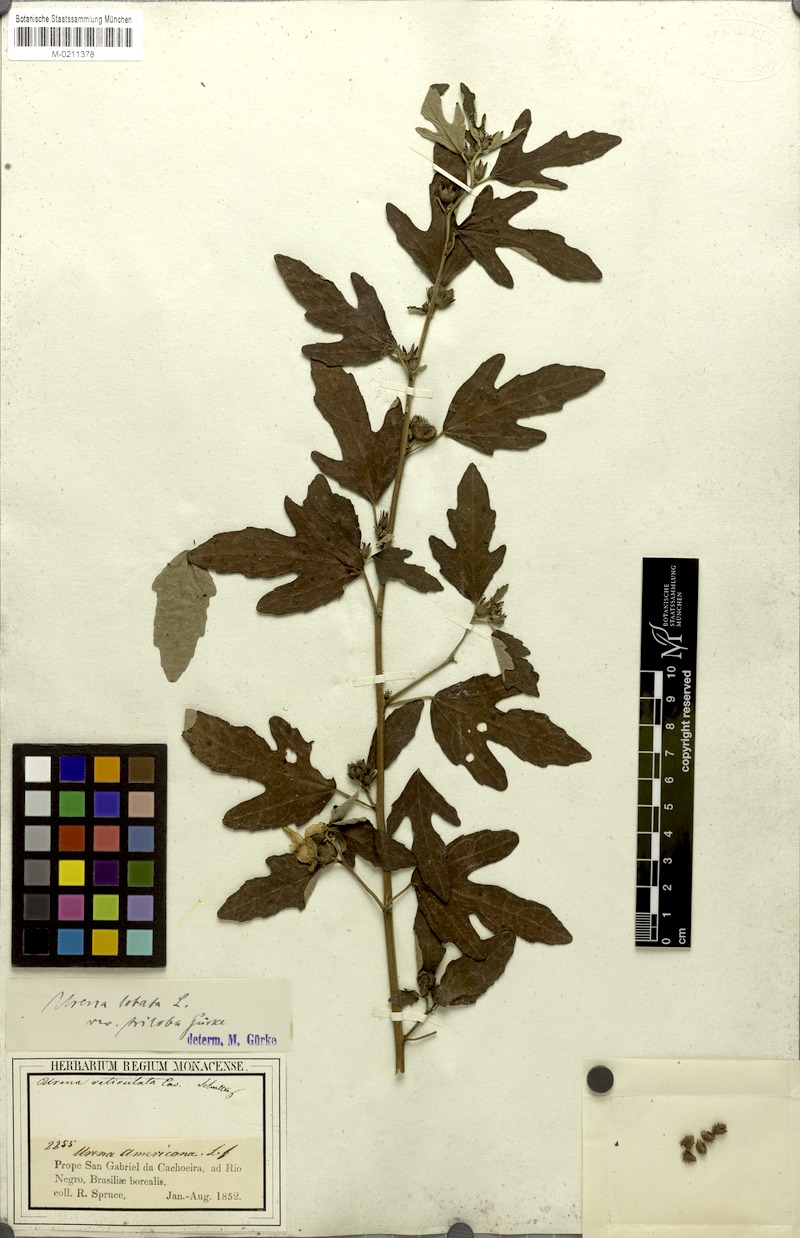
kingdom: Plantae
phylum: Tracheophyta
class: Magnoliopsida
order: Malvales
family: Malvaceae
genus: Urena
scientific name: Urena lobata
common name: Caesarweed
